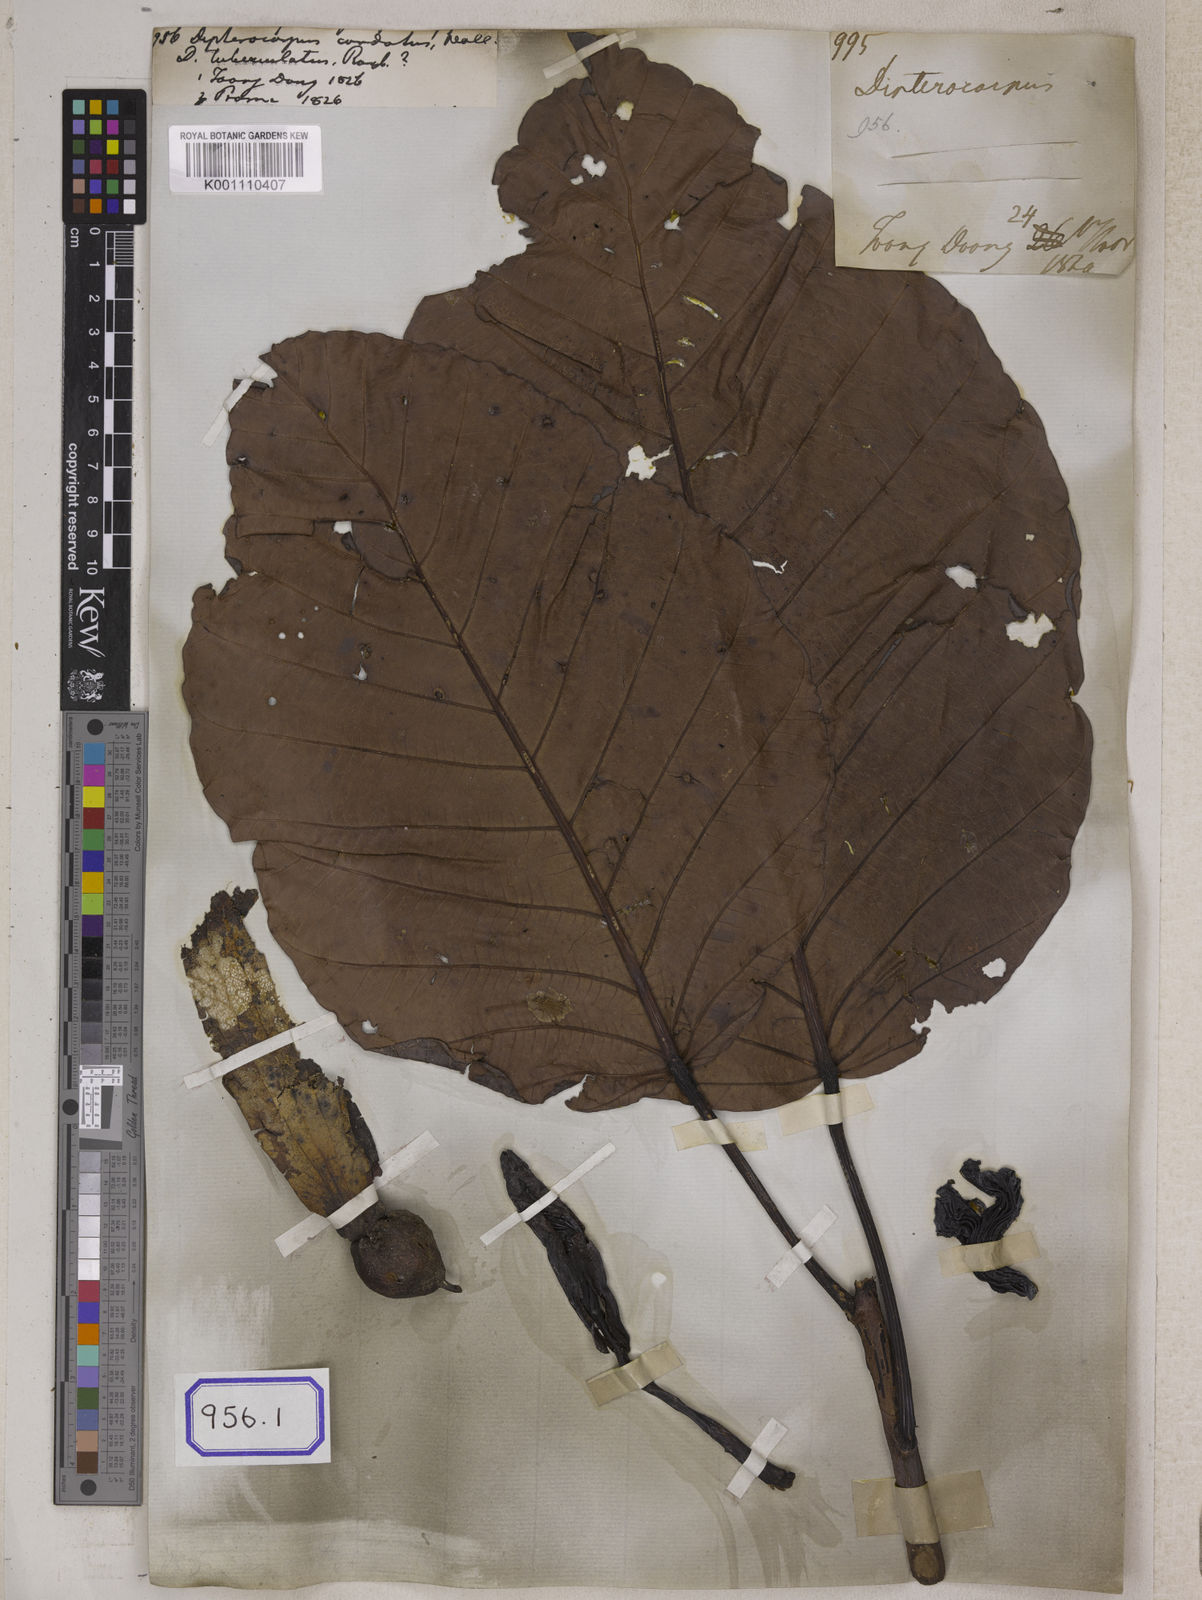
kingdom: Plantae
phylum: Tracheophyta
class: Magnoliopsida
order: Malvales
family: Dipterocarpaceae
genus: Dipterocarpus
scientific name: Dipterocarpus
